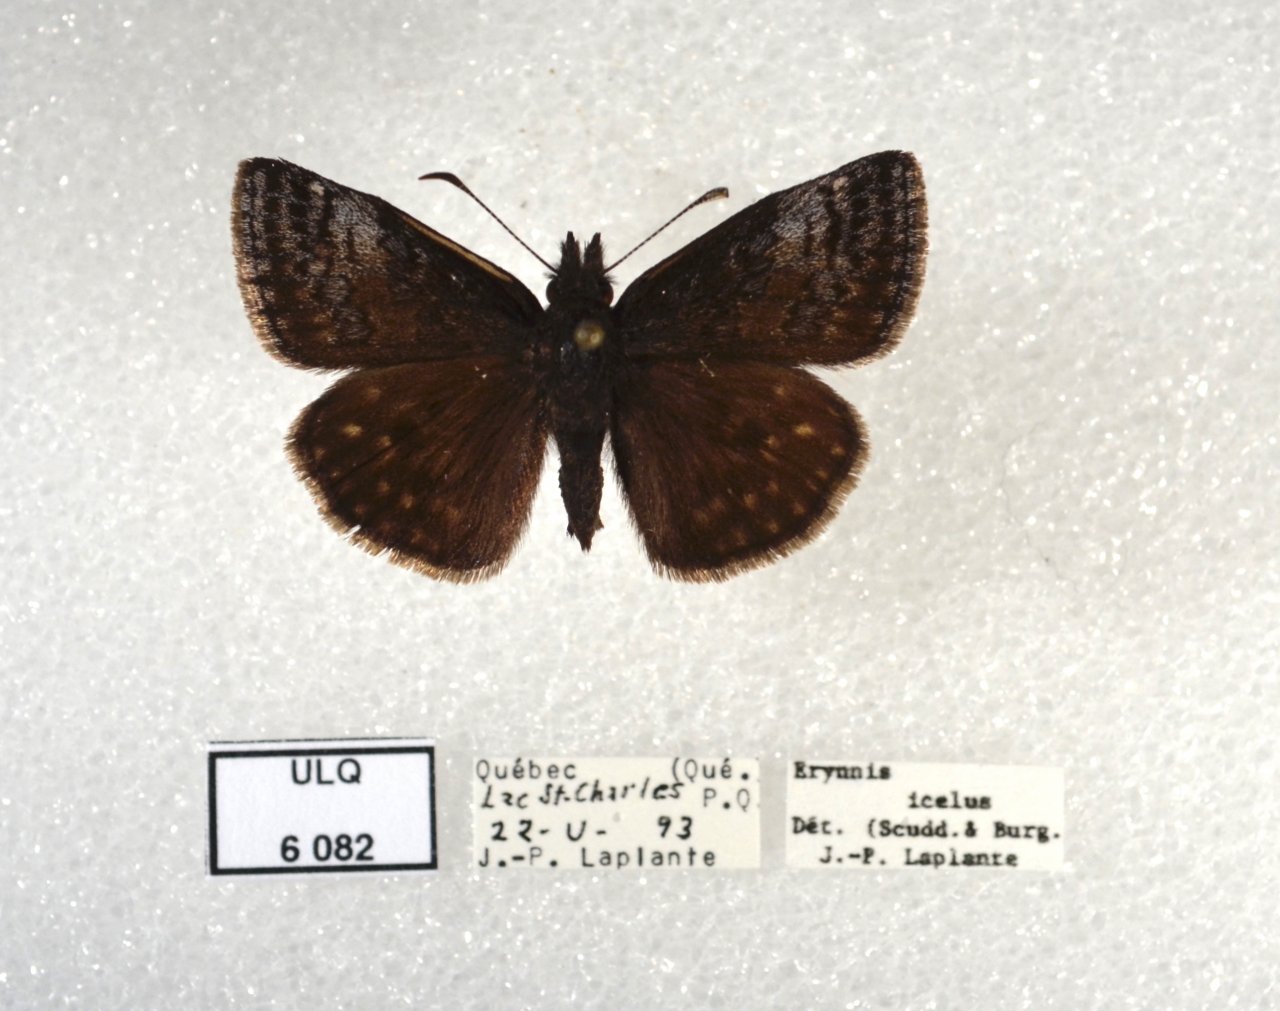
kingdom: Animalia
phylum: Arthropoda
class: Insecta
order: Lepidoptera
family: Hesperiidae
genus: Erynnis
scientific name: Erynnis icelus
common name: Dreamy Duskywing
